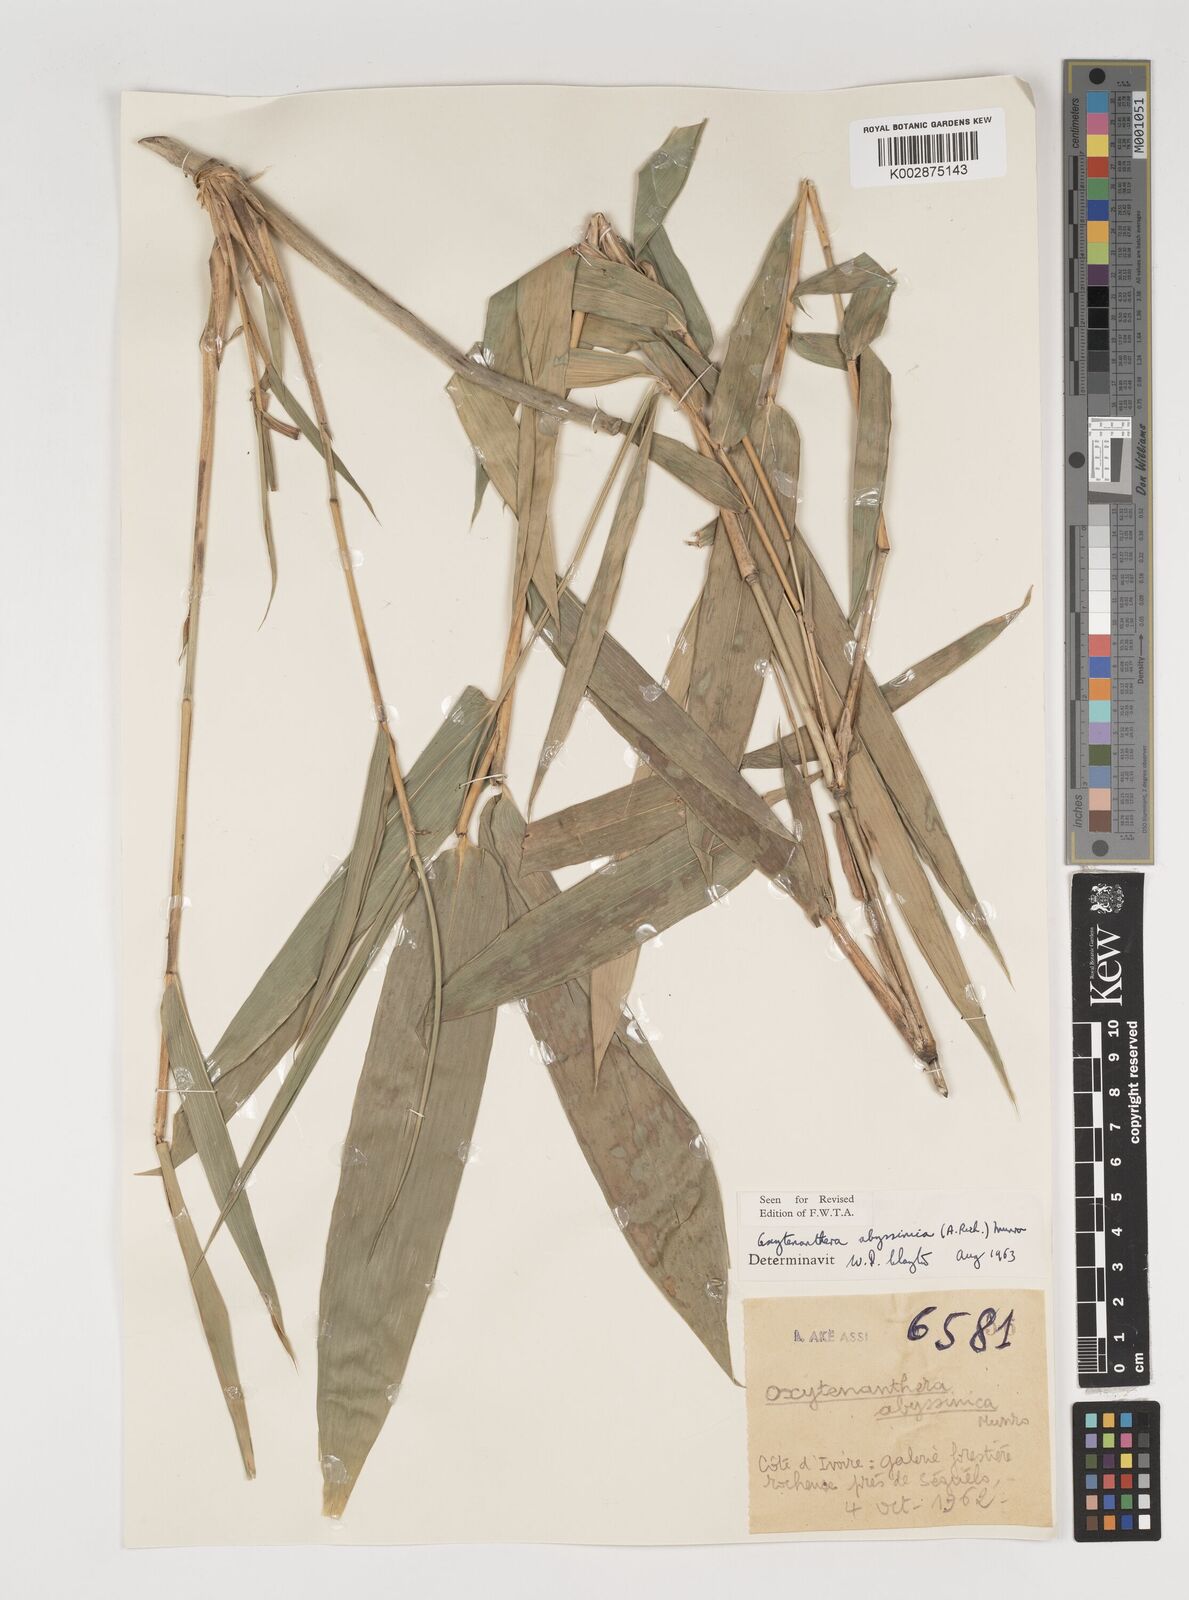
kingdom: Plantae
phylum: Tracheophyta
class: Liliopsida
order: Poales
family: Poaceae
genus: Oxytenanthera
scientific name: Oxytenanthera abyssinica
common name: Wine bamboo
